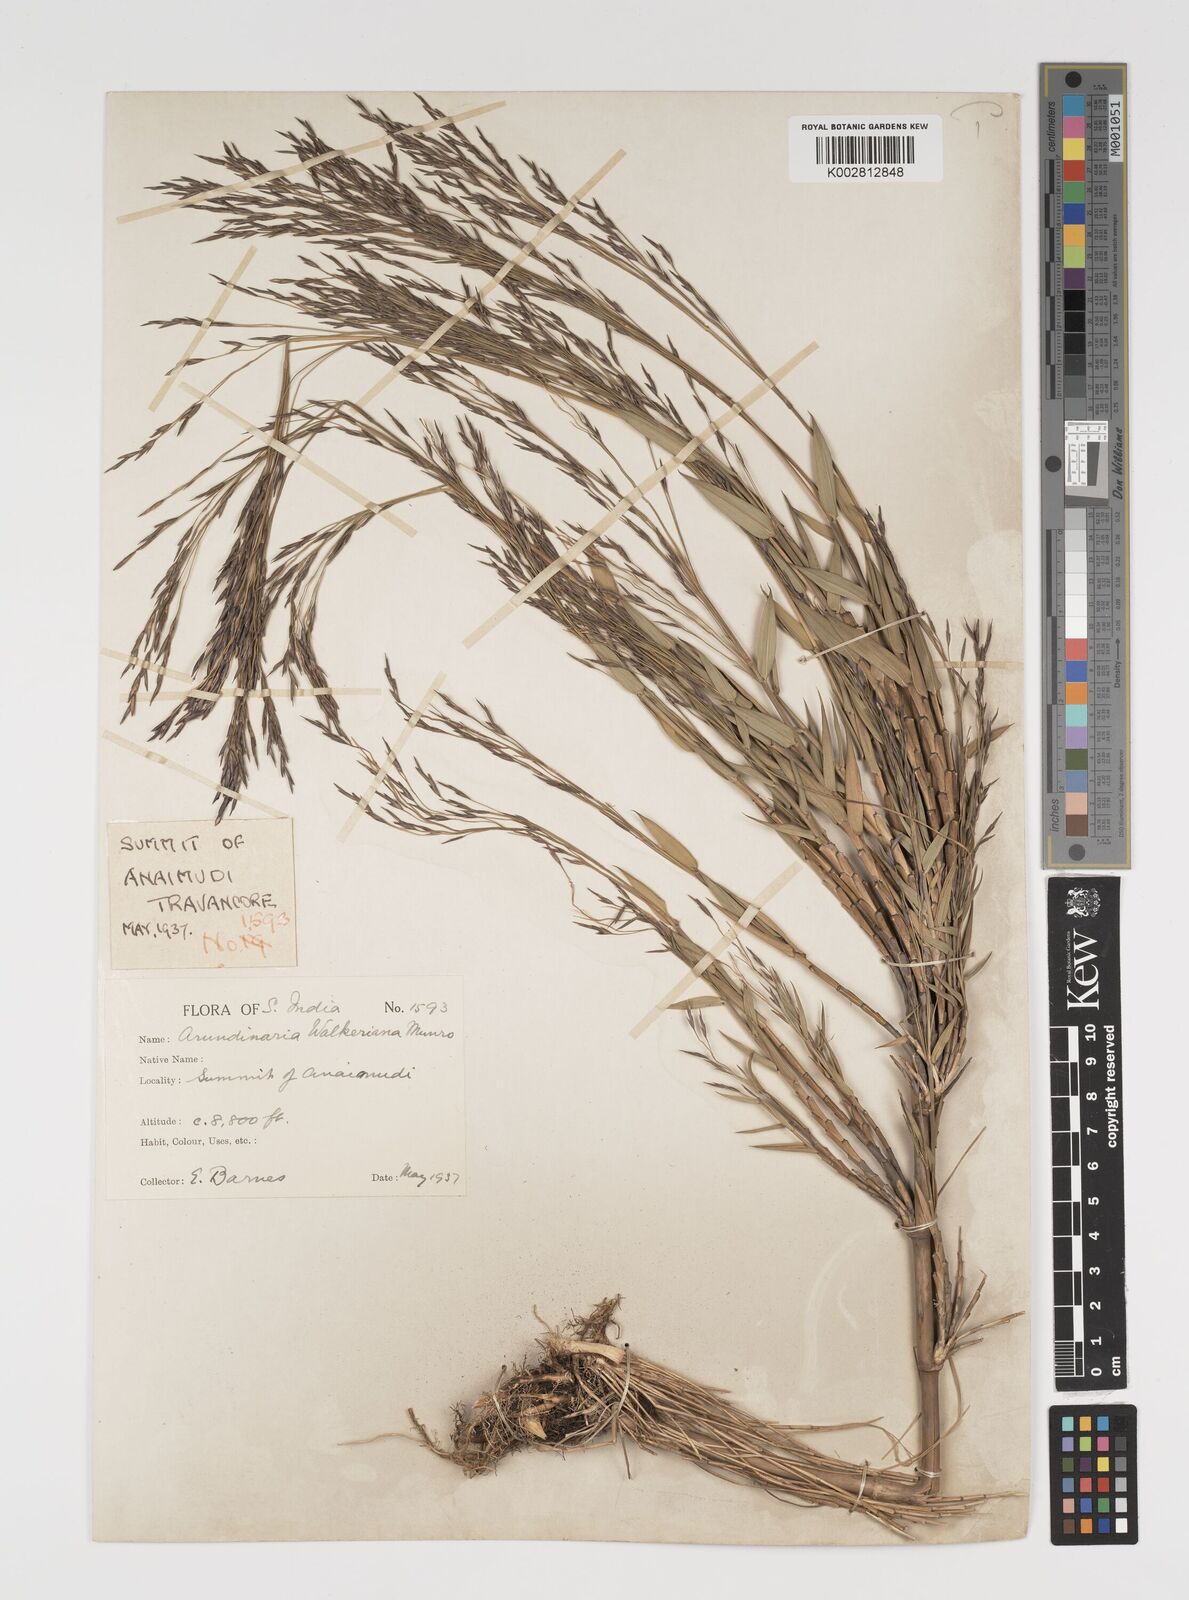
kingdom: Plantae
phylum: Tracheophyta
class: Liliopsida
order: Poales
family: Poaceae
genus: Kuruna
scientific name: Kuruna walkeriana
